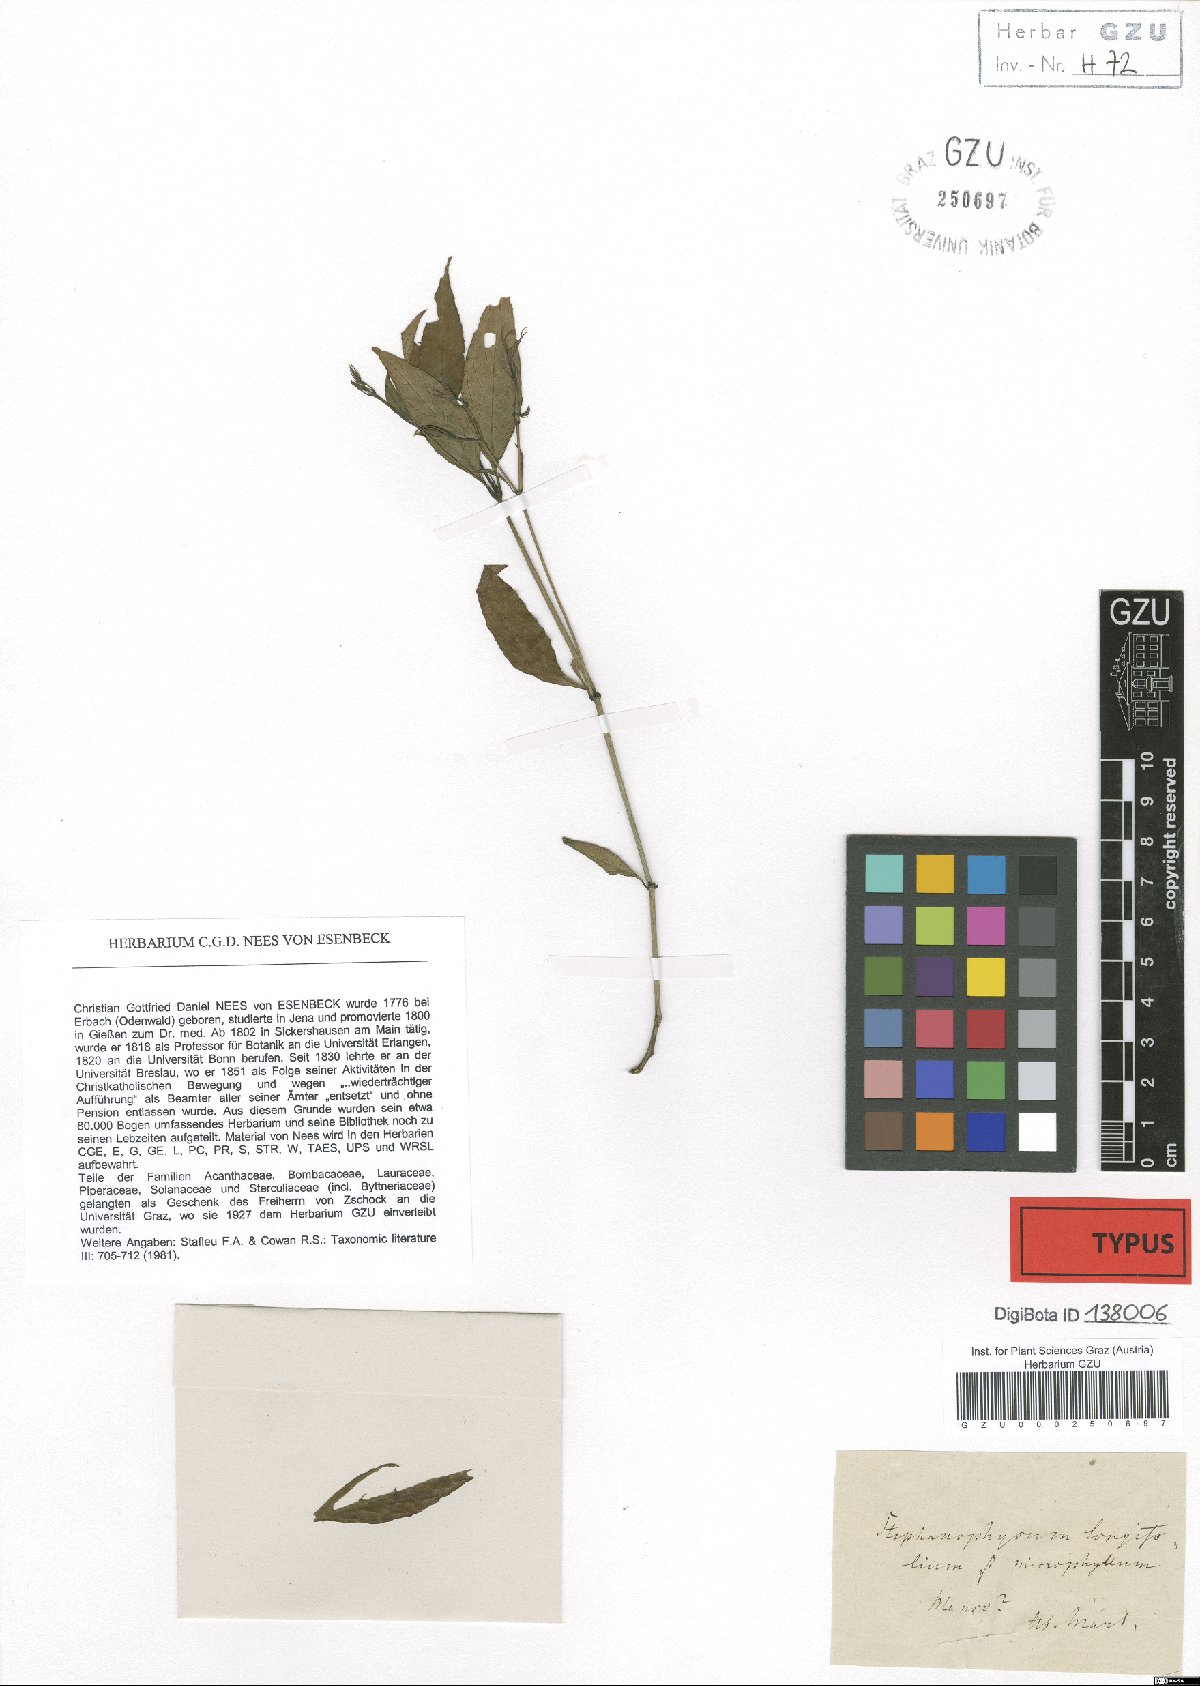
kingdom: Plantae
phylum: Tracheophyta
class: Magnoliopsida
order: Lamiales
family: Acanthaceae
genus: Ruellia
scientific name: Ruellia brevifolia
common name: Tropical wild petunia
